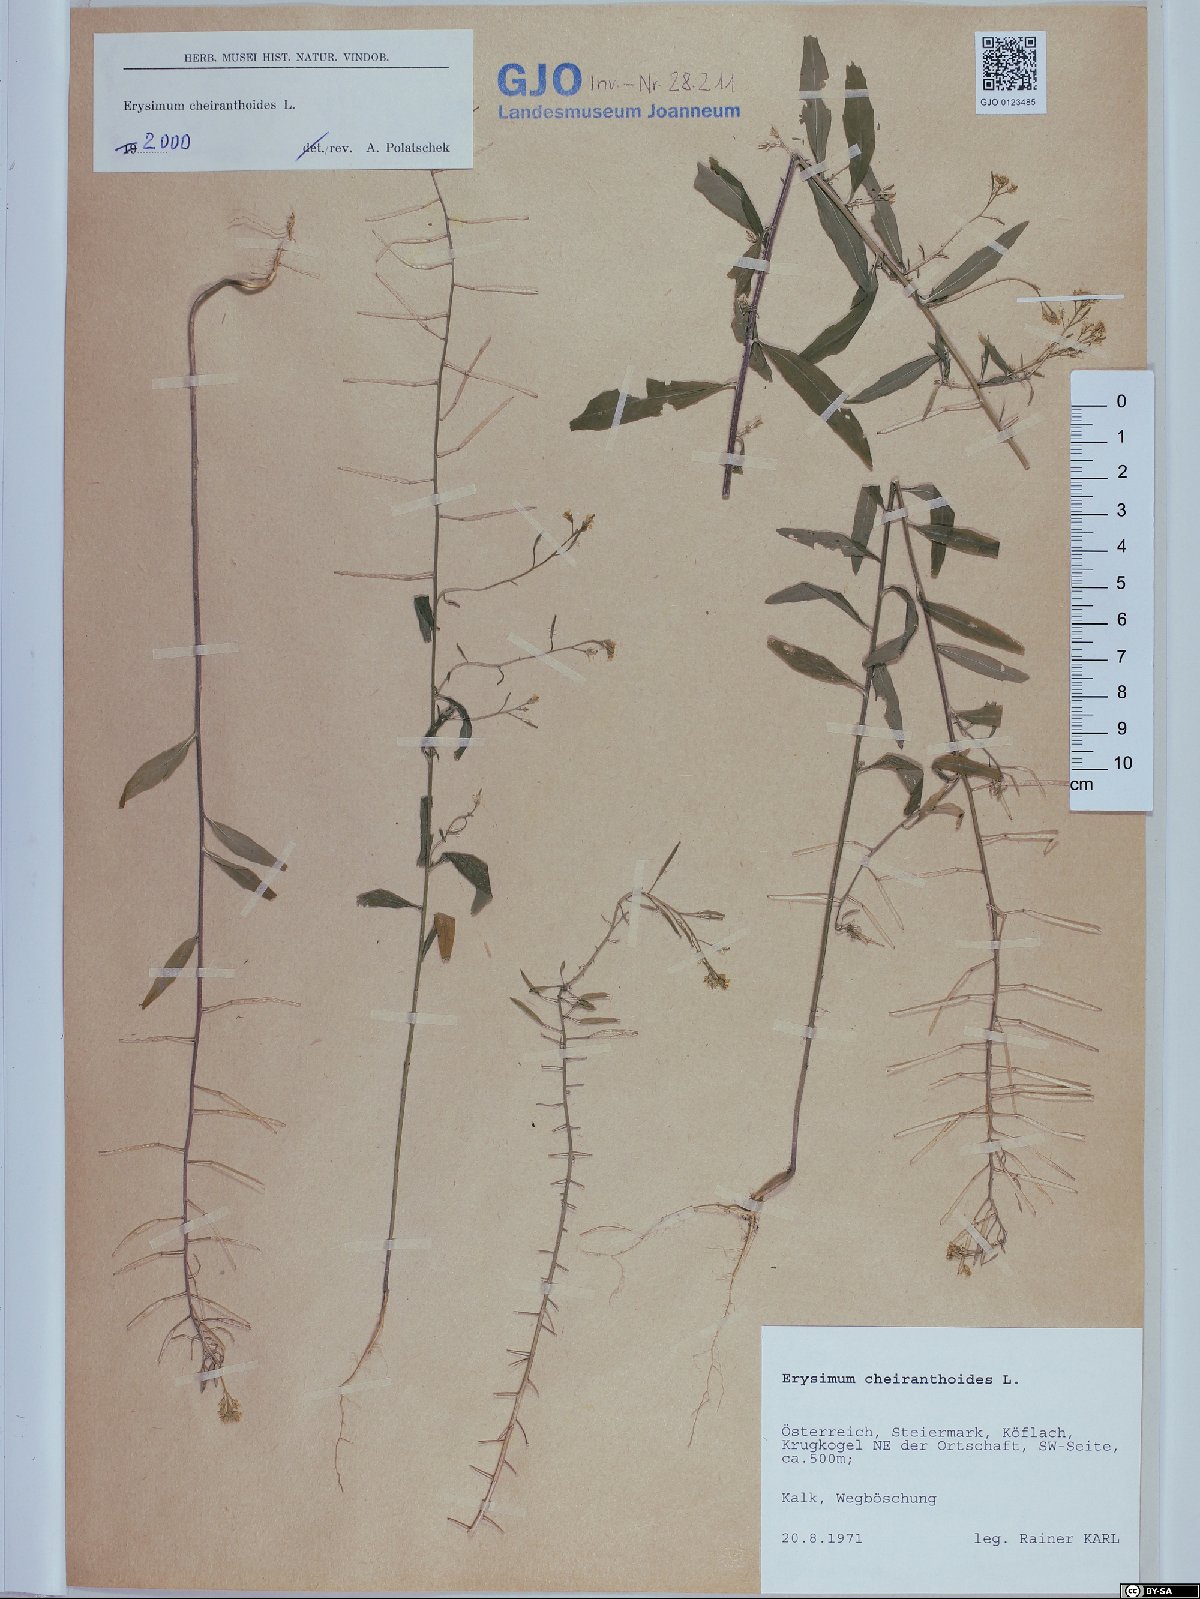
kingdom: Plantae
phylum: Tracheophyta
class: Magnoliopsida
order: Brassicales
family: Brassicaceae
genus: Erysimum
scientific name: Erysimum cheiranthoides
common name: Treacle mustard
